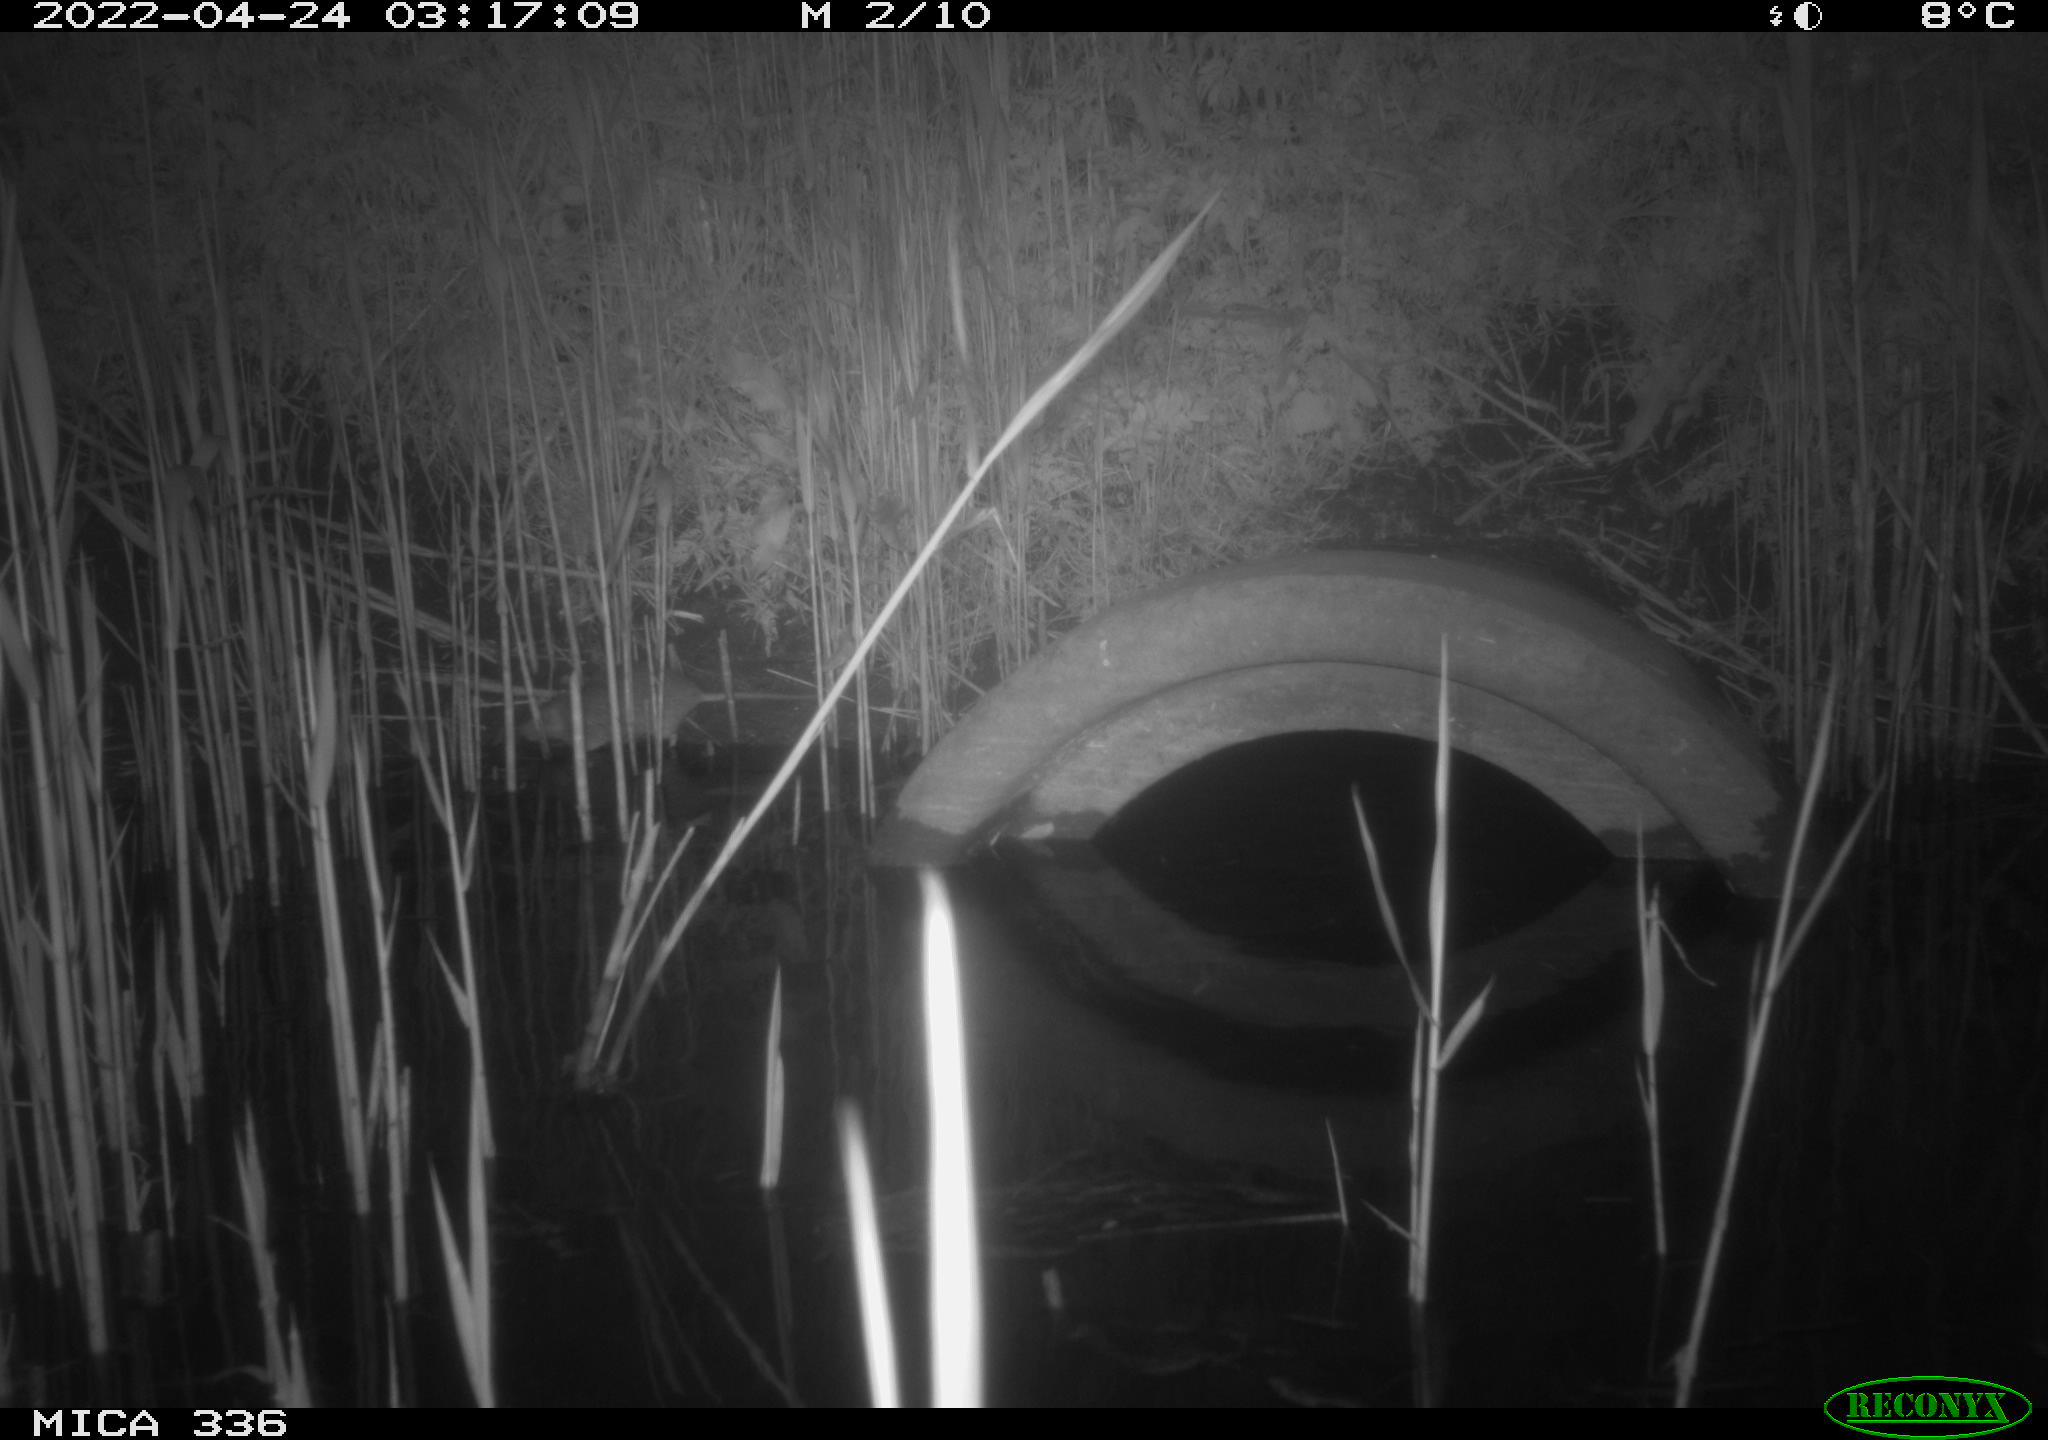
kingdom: Animalia
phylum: Chordata
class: Mammalia
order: Rodentia
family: Muridae
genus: Rattus
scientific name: Rattus norvegicus
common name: Brown rat
